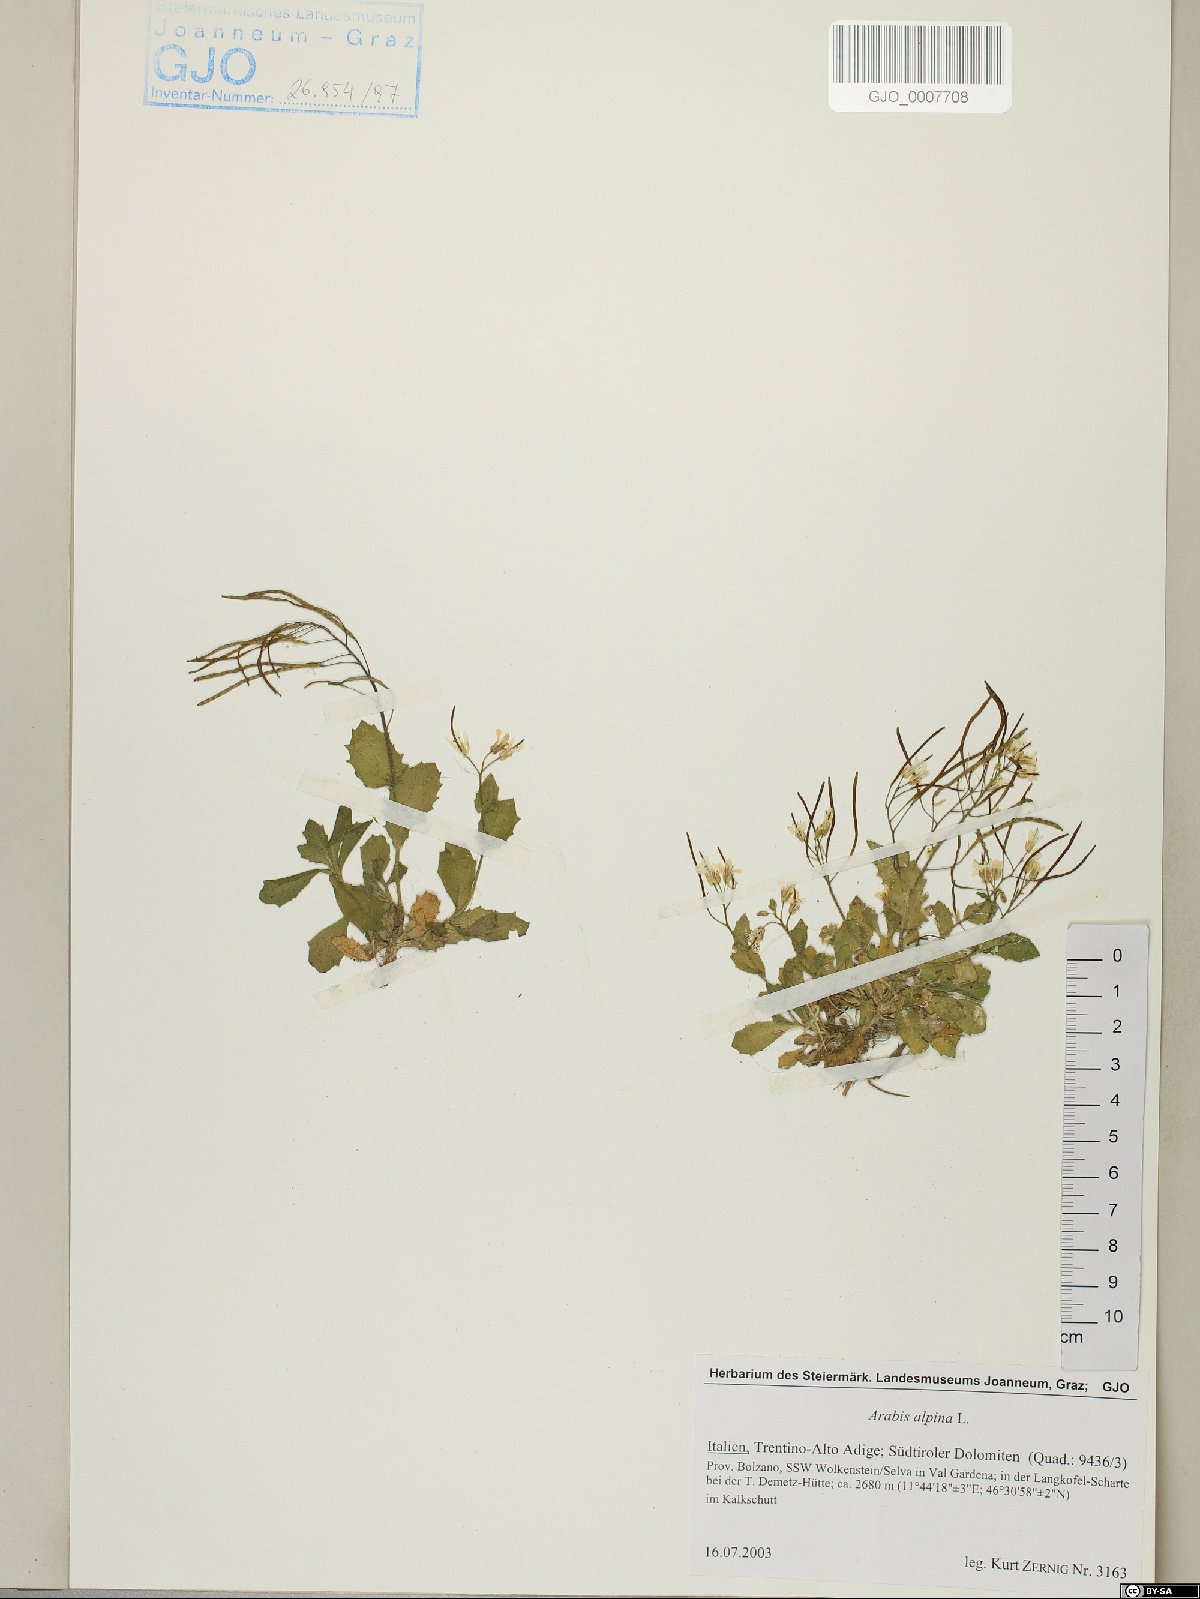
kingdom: Plantae
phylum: Tracheophyta
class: Magnoliopsida
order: Brassicales
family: Brassicaceae
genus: Arabis
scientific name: Arabis alpina
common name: Alpine rock-cress
